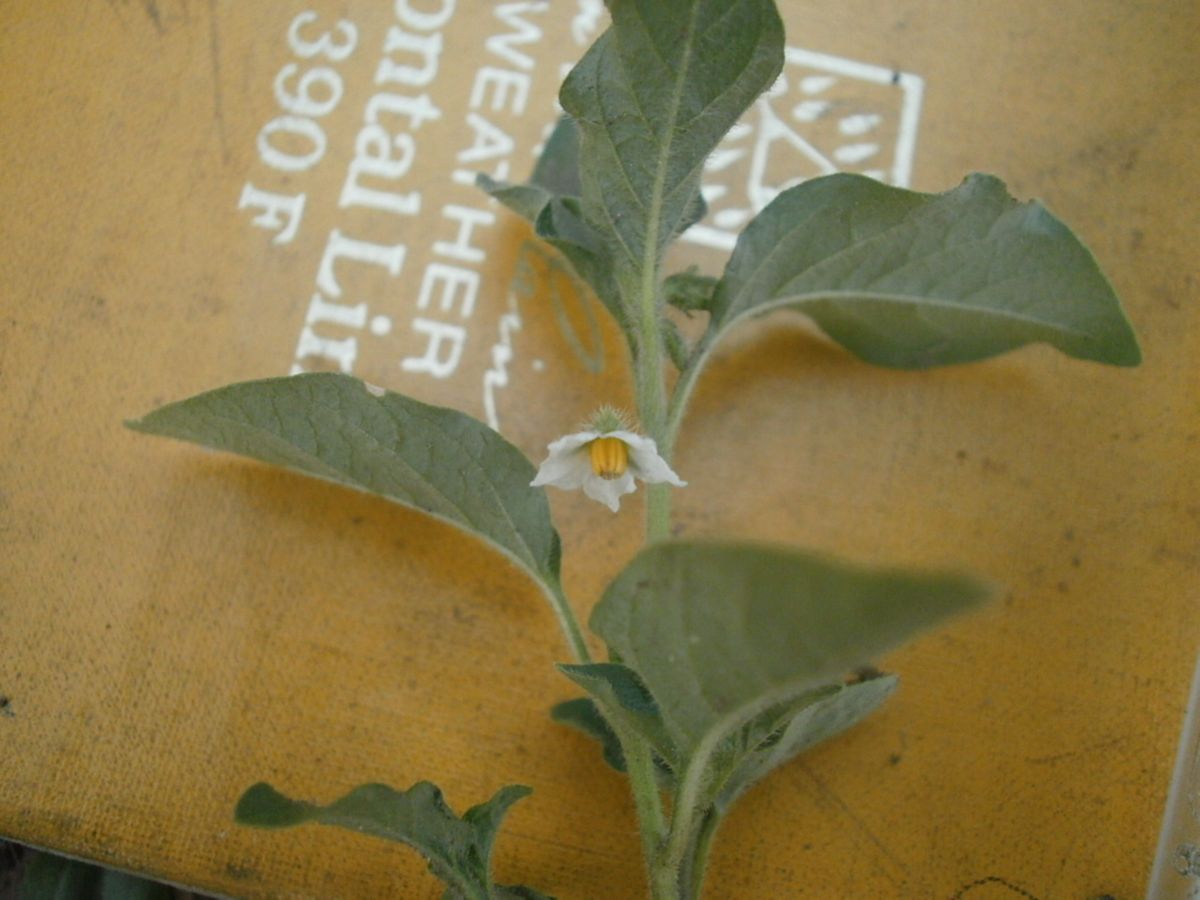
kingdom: Plantae
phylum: Tracheophyta
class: Magnoliopsida
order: Solanales
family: Solanaceae
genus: Solanum
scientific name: Solanum deflexum
